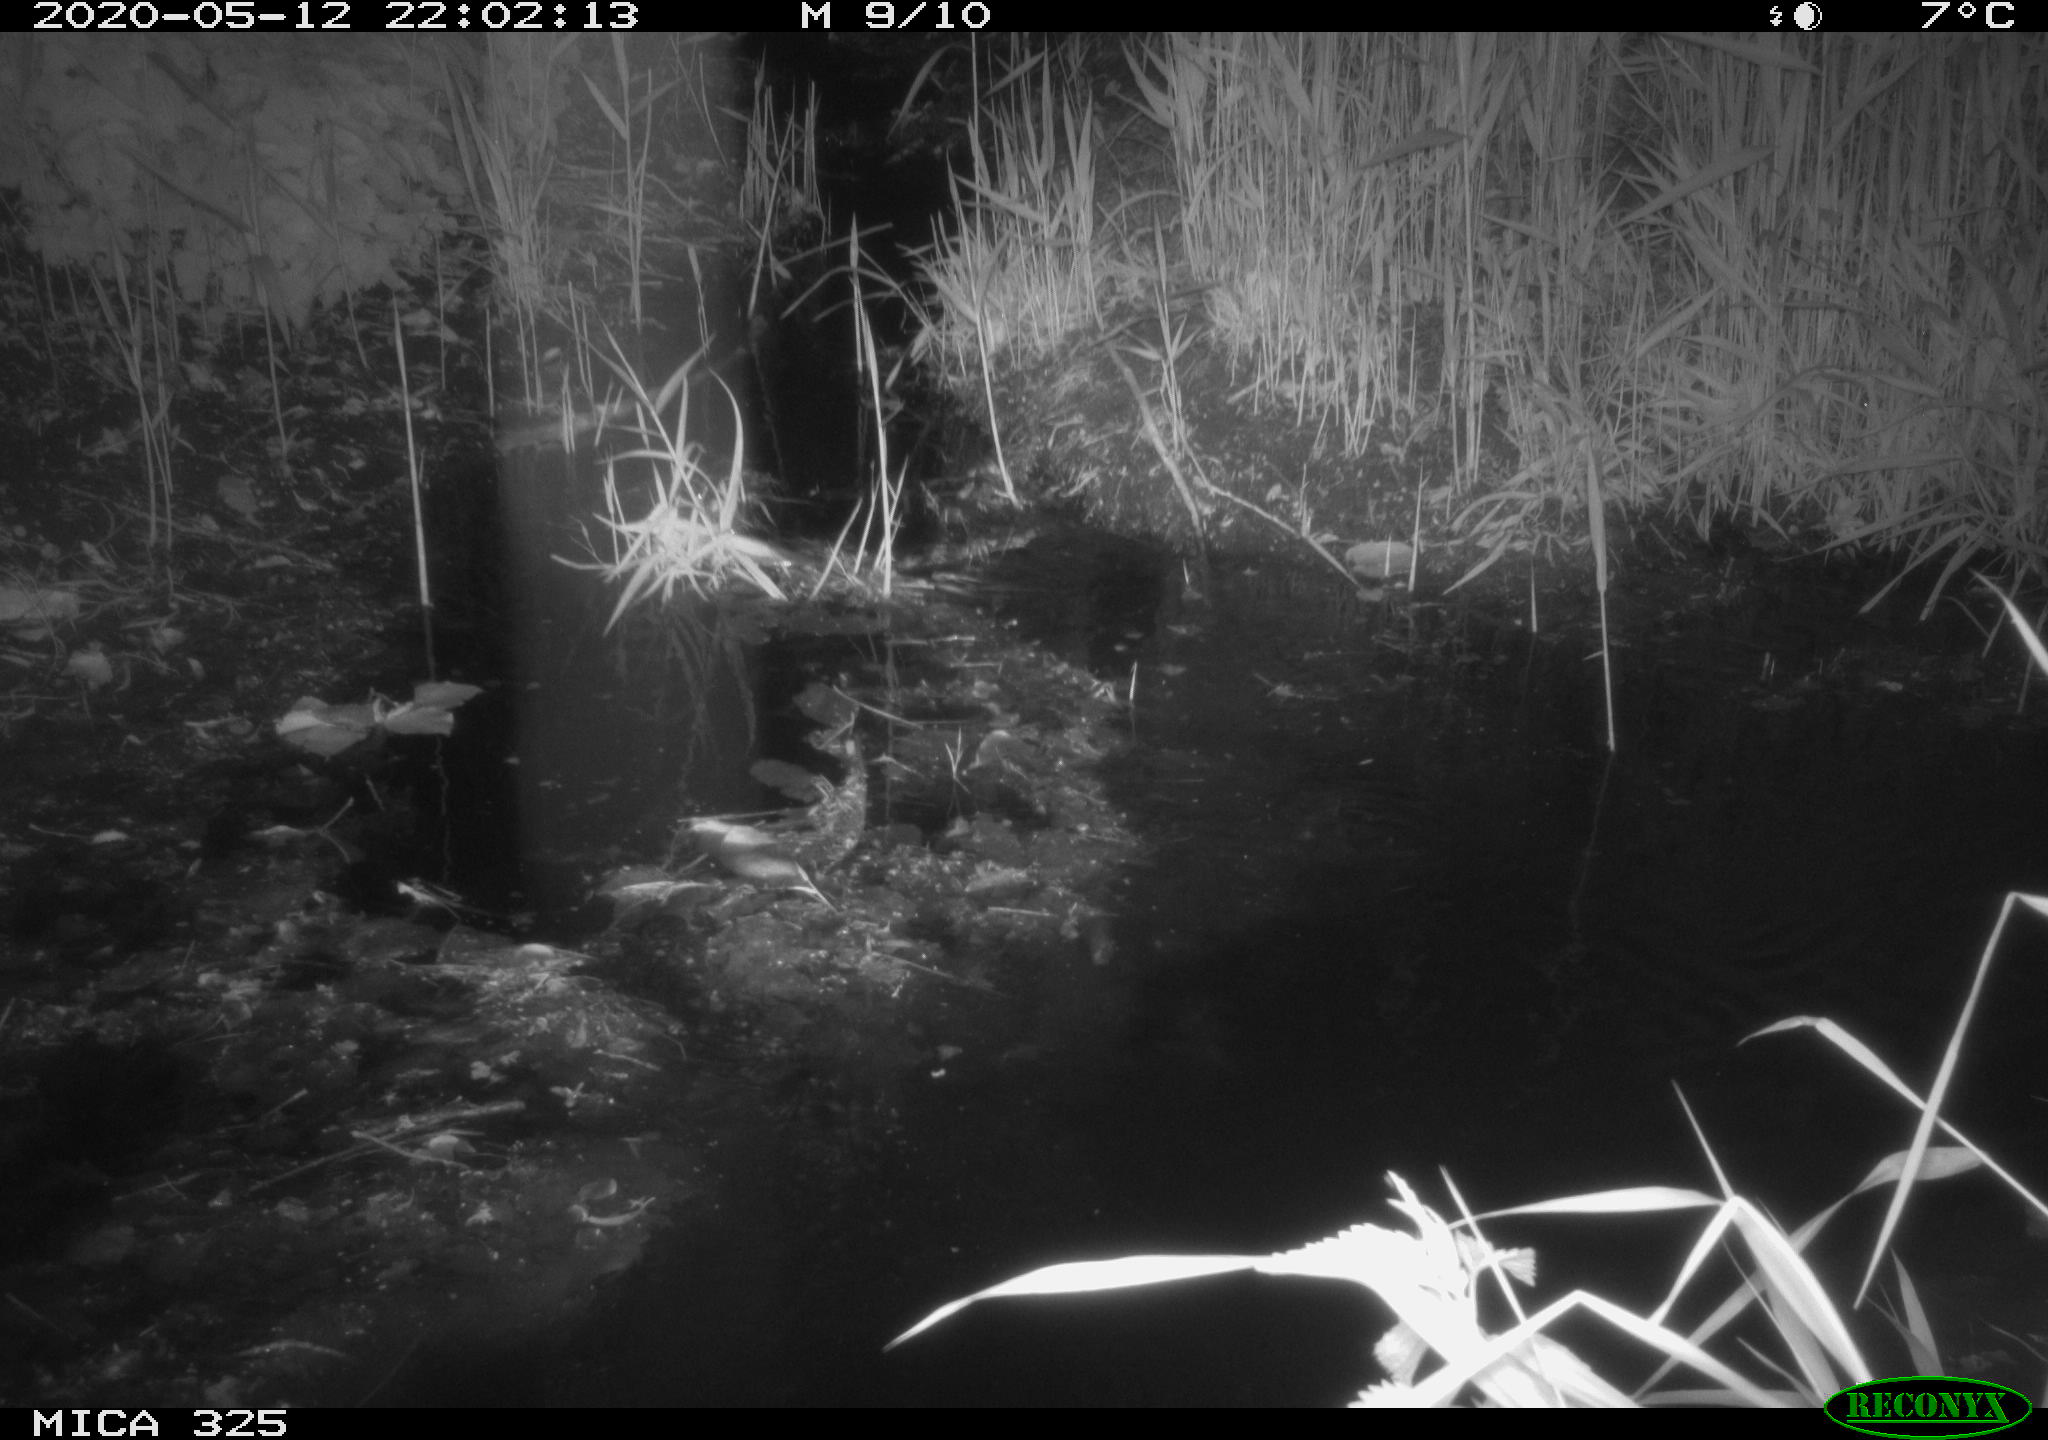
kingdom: Animalia
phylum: Chordata
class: Mammalia
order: Rodentia
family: Myocastoridae
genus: Myocastor
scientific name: Myocastor coypus
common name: Coypu
